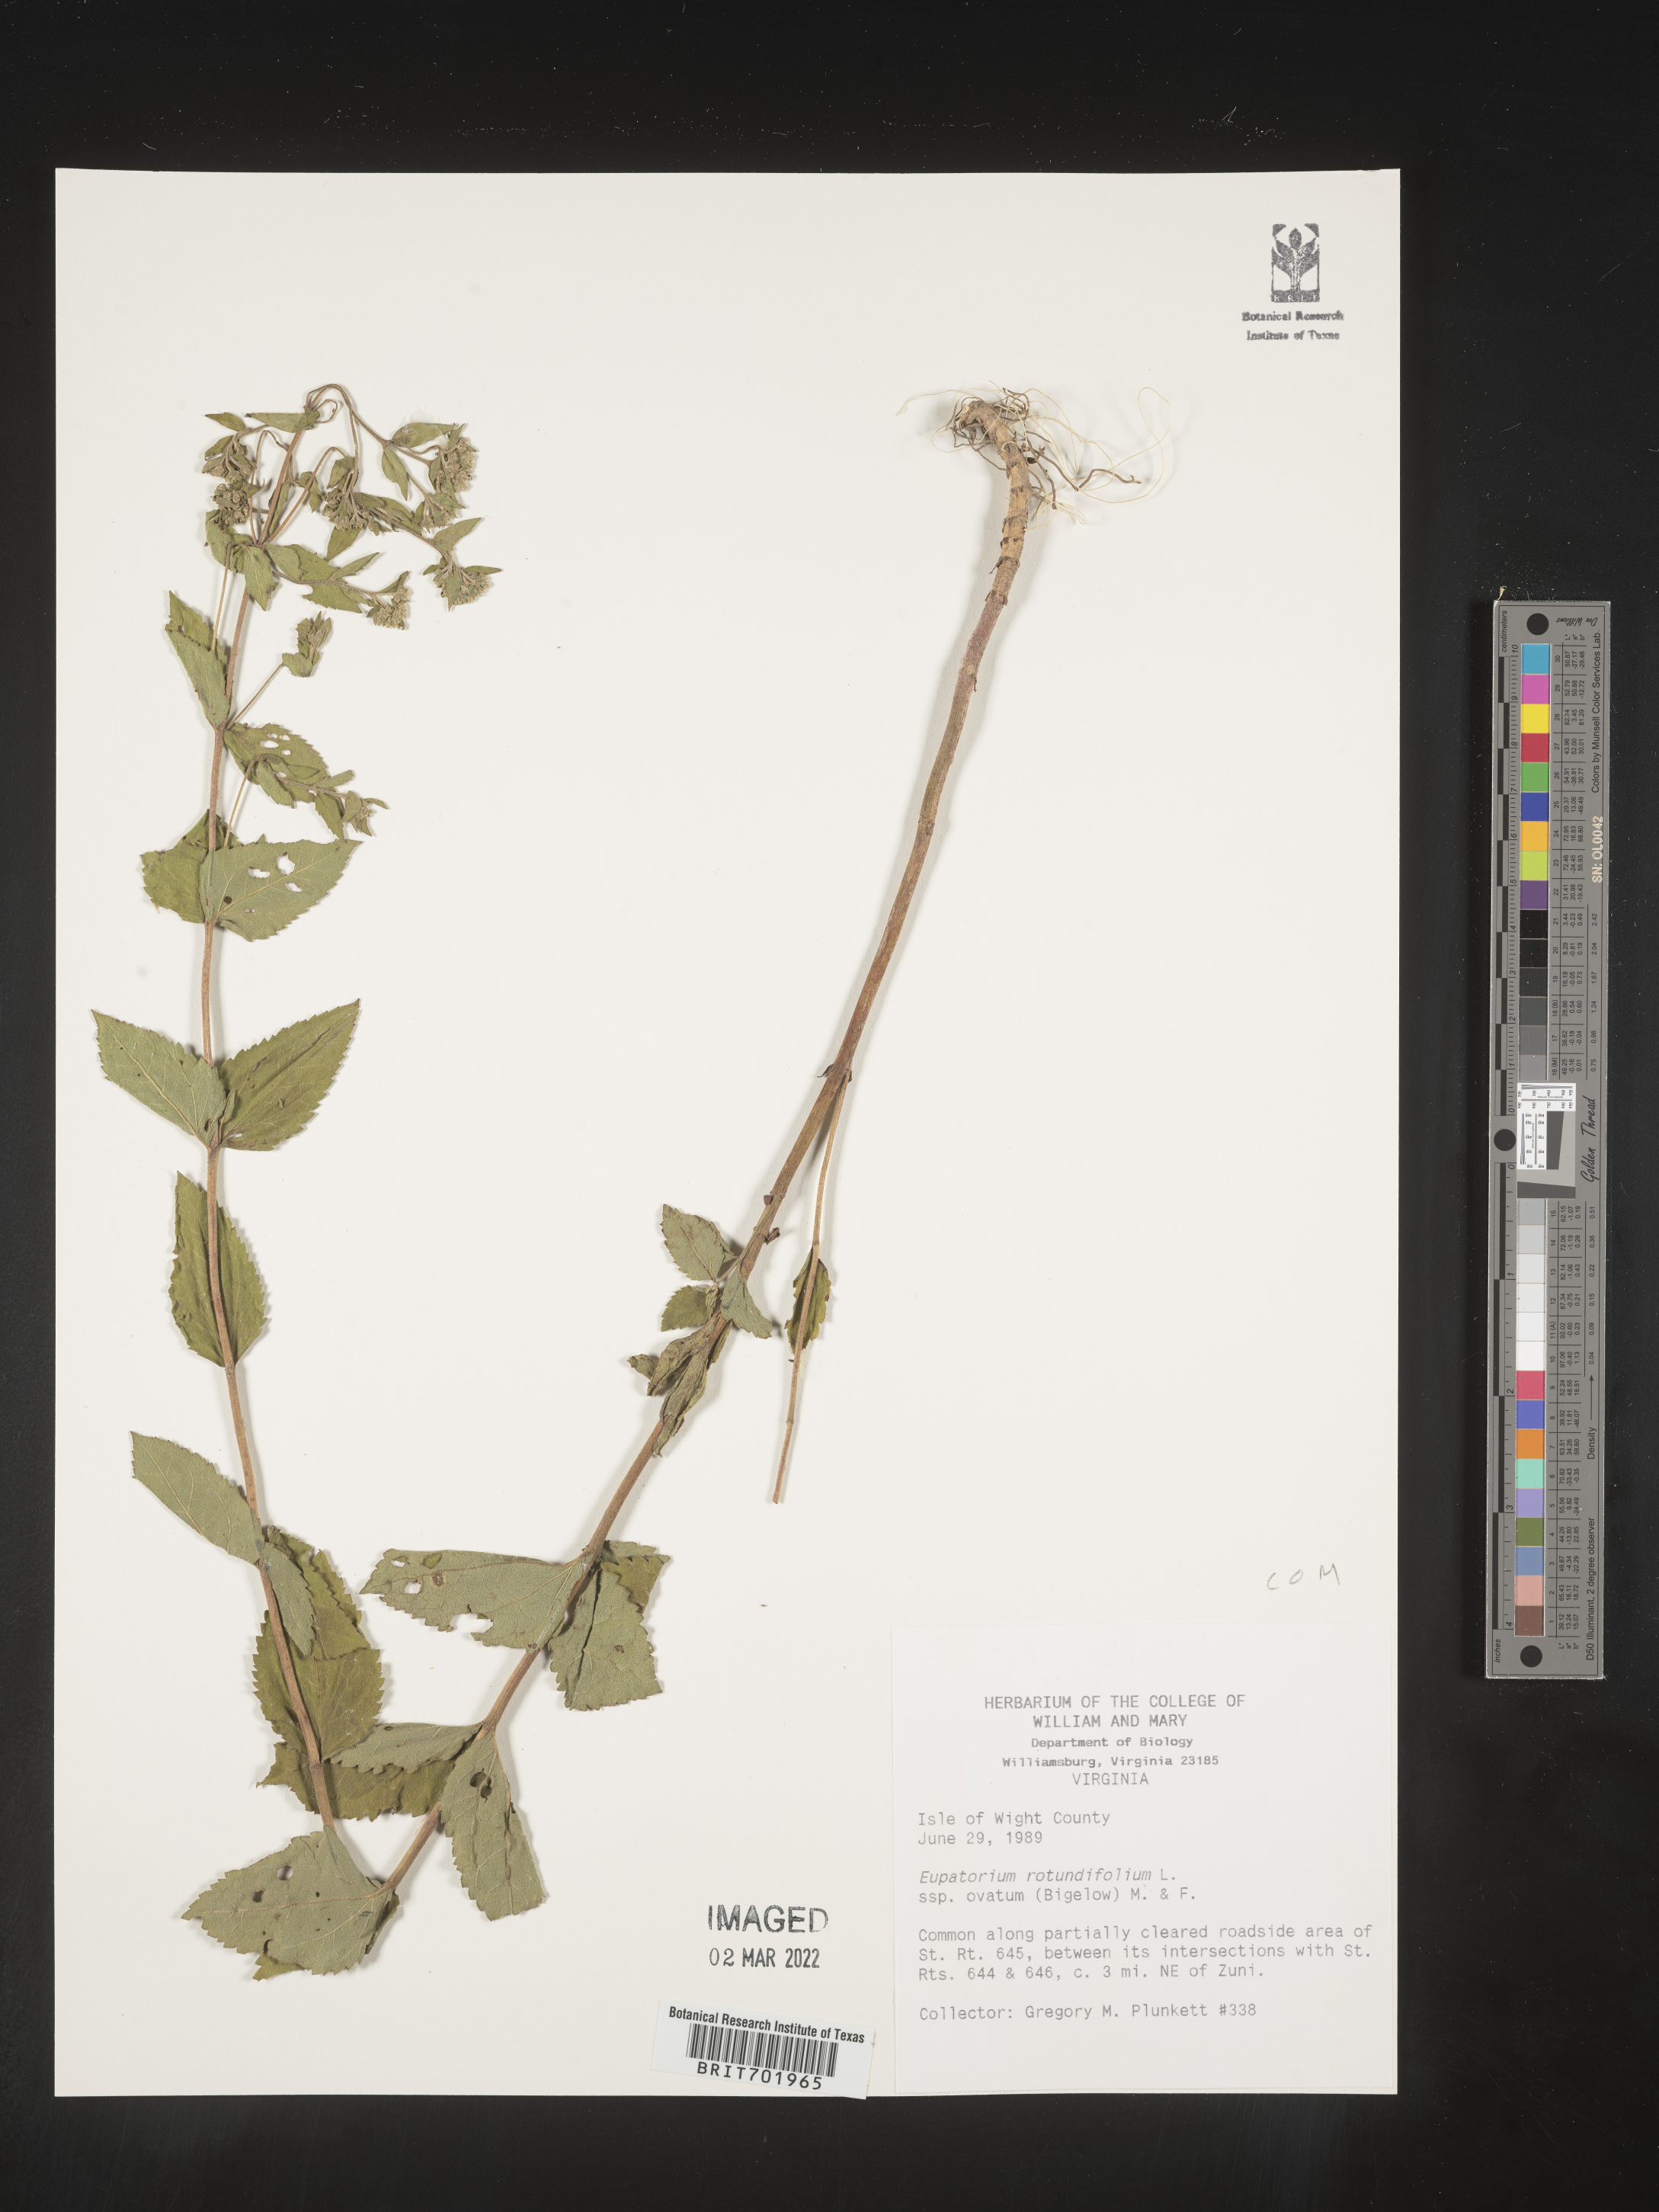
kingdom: Plantae
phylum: Tracheophyta
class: Magnoliopsida
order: Asterales
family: Asteraceae
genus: Eupatorium
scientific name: Eupatorium rotundifolium
